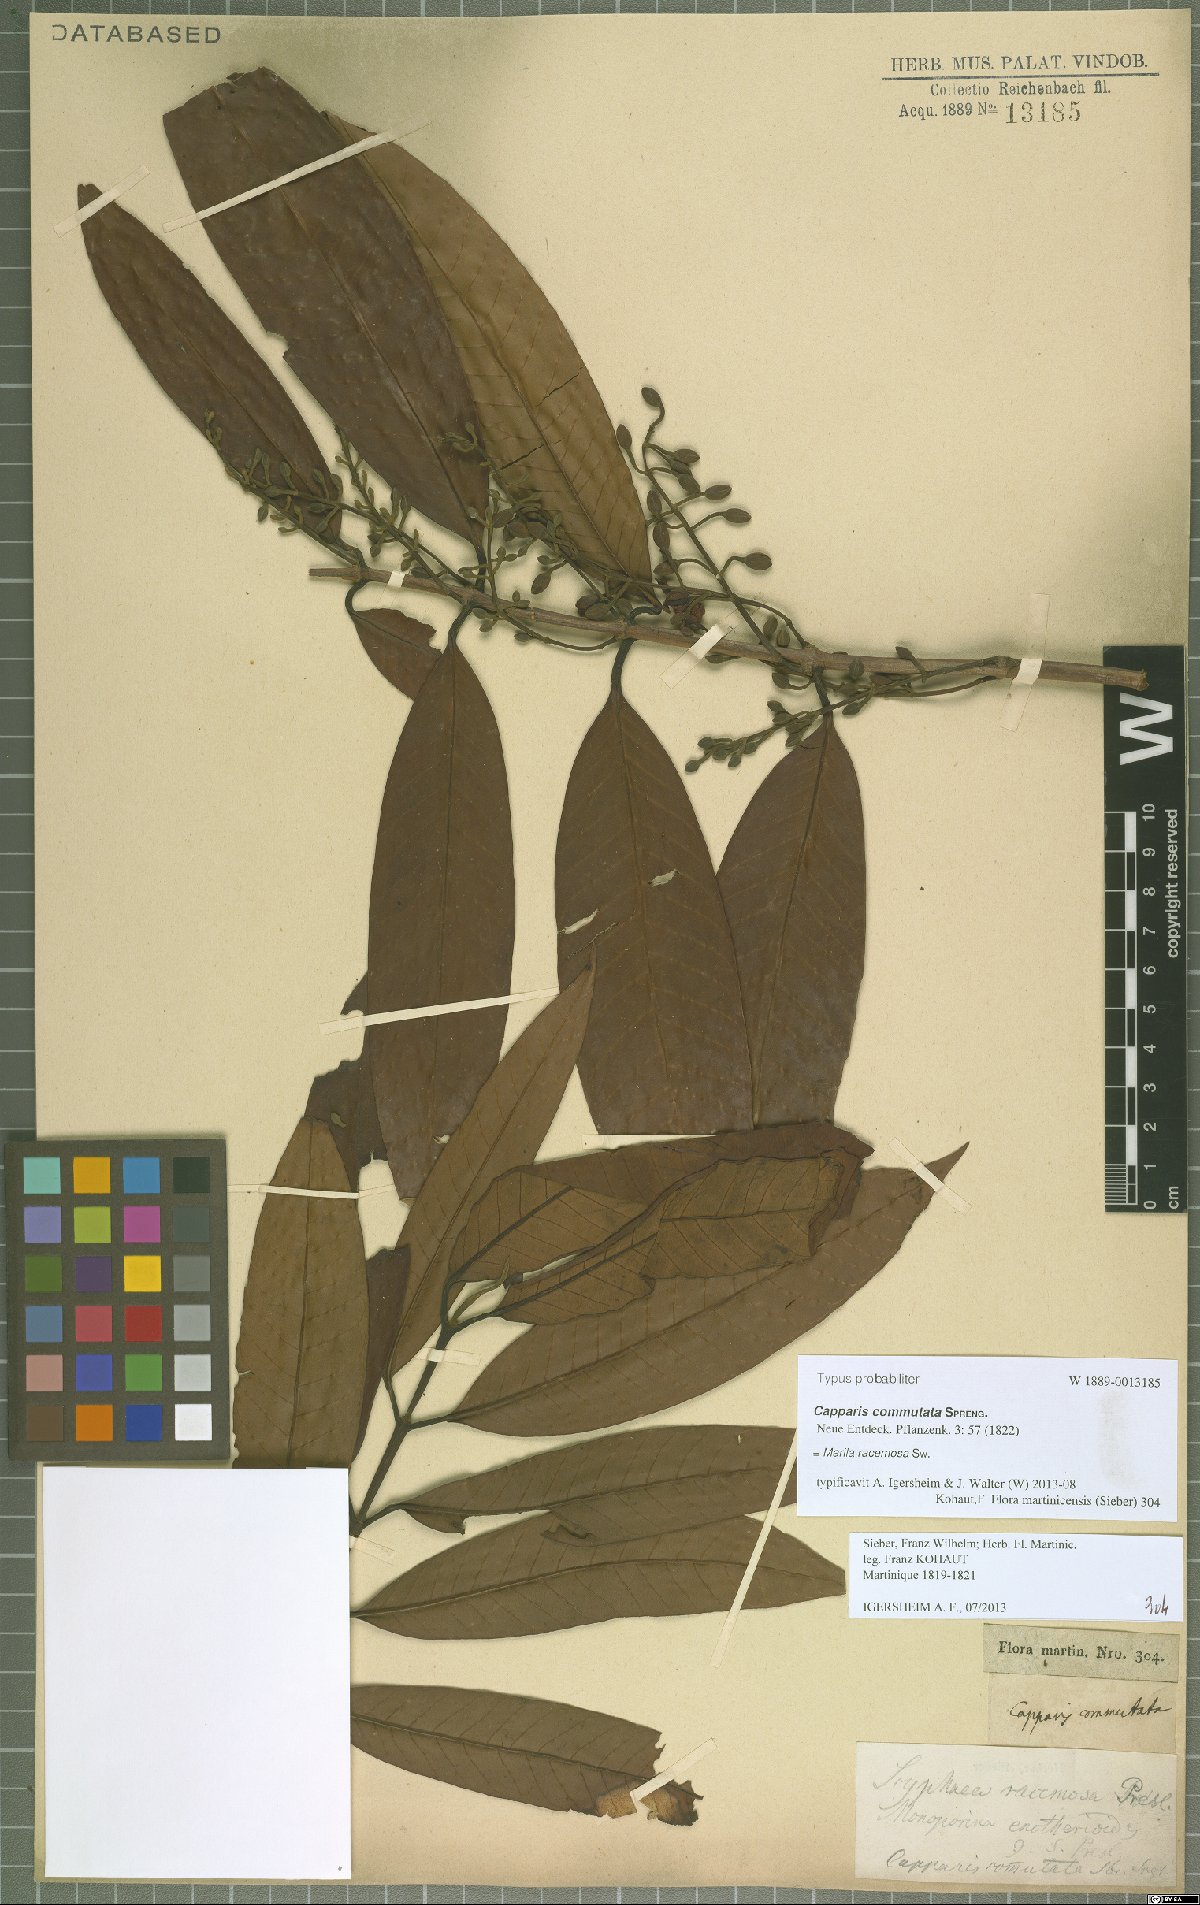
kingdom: Plantae
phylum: Tracheophyta
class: Magnoliopsida
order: Malpighiales
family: Calophyllaceae
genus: Marila
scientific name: Marila racemosa
